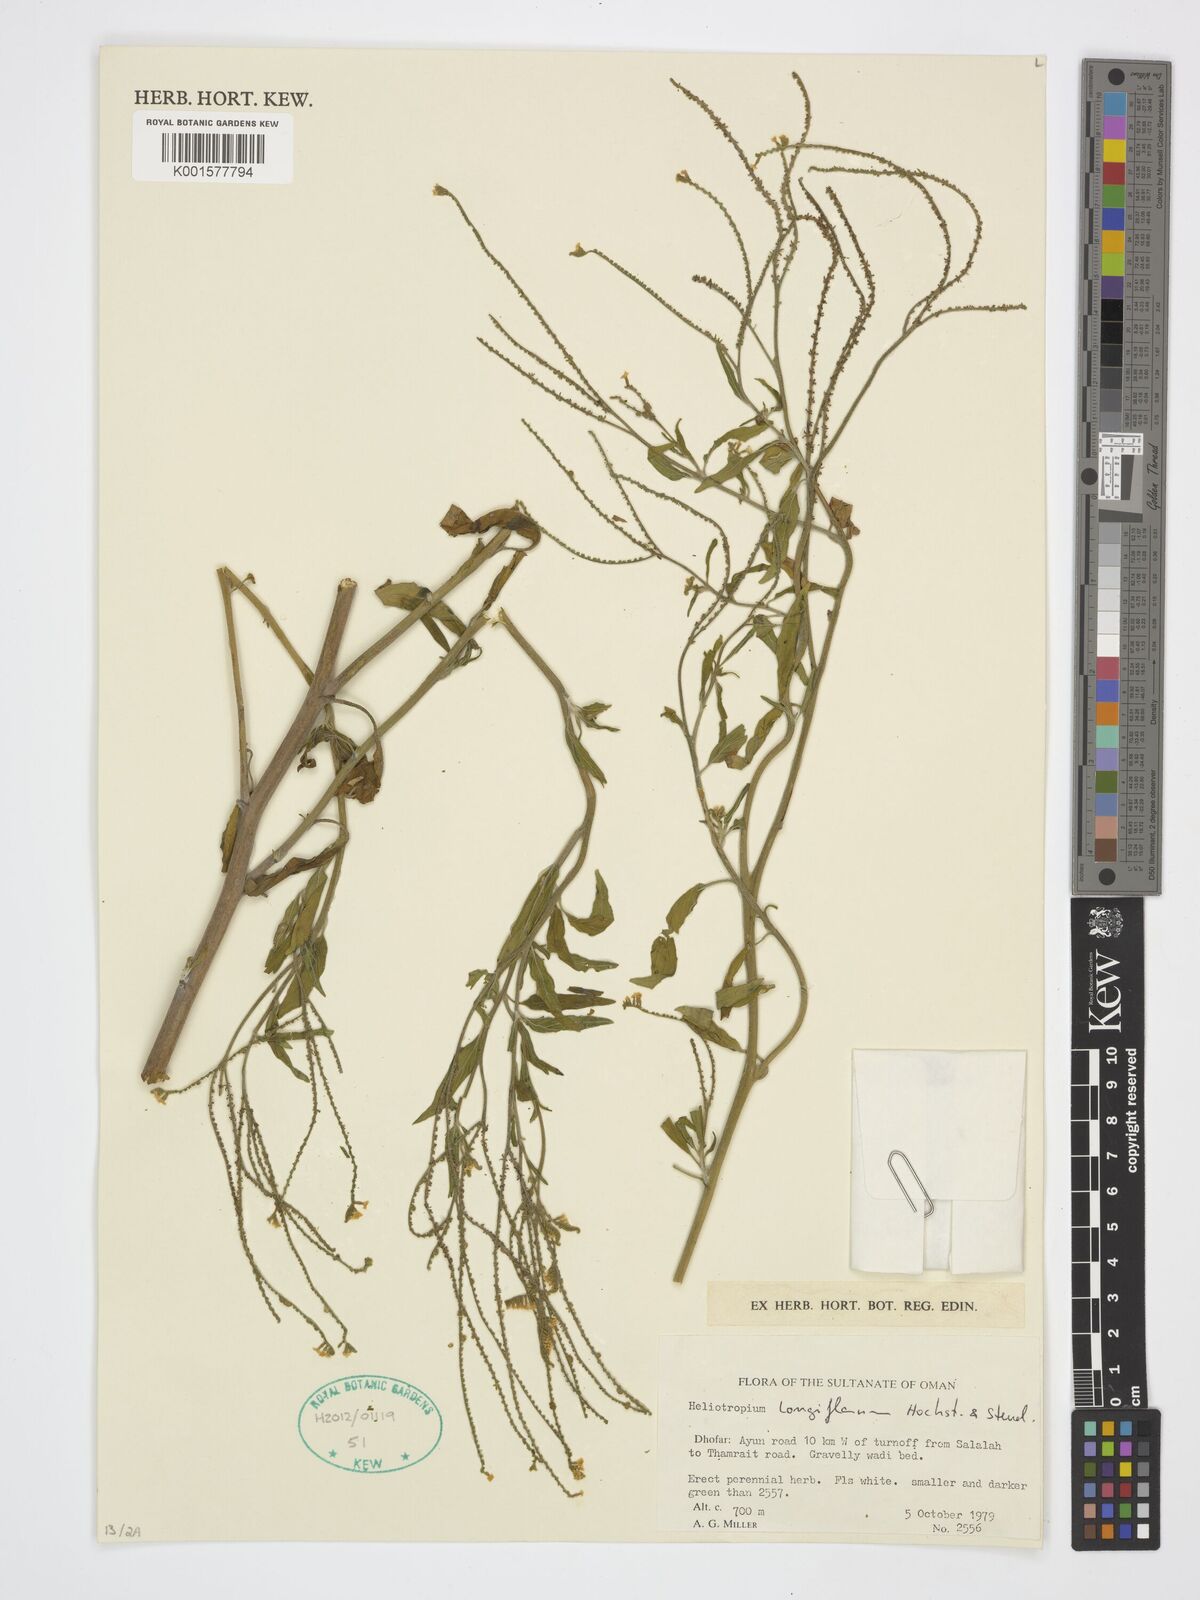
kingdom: Plantae
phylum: Tracheophyta
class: Magnoliopsida
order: Boraginales
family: Heliotropiaceae
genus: Heliotropium
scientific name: Heliotropium longiflorum
